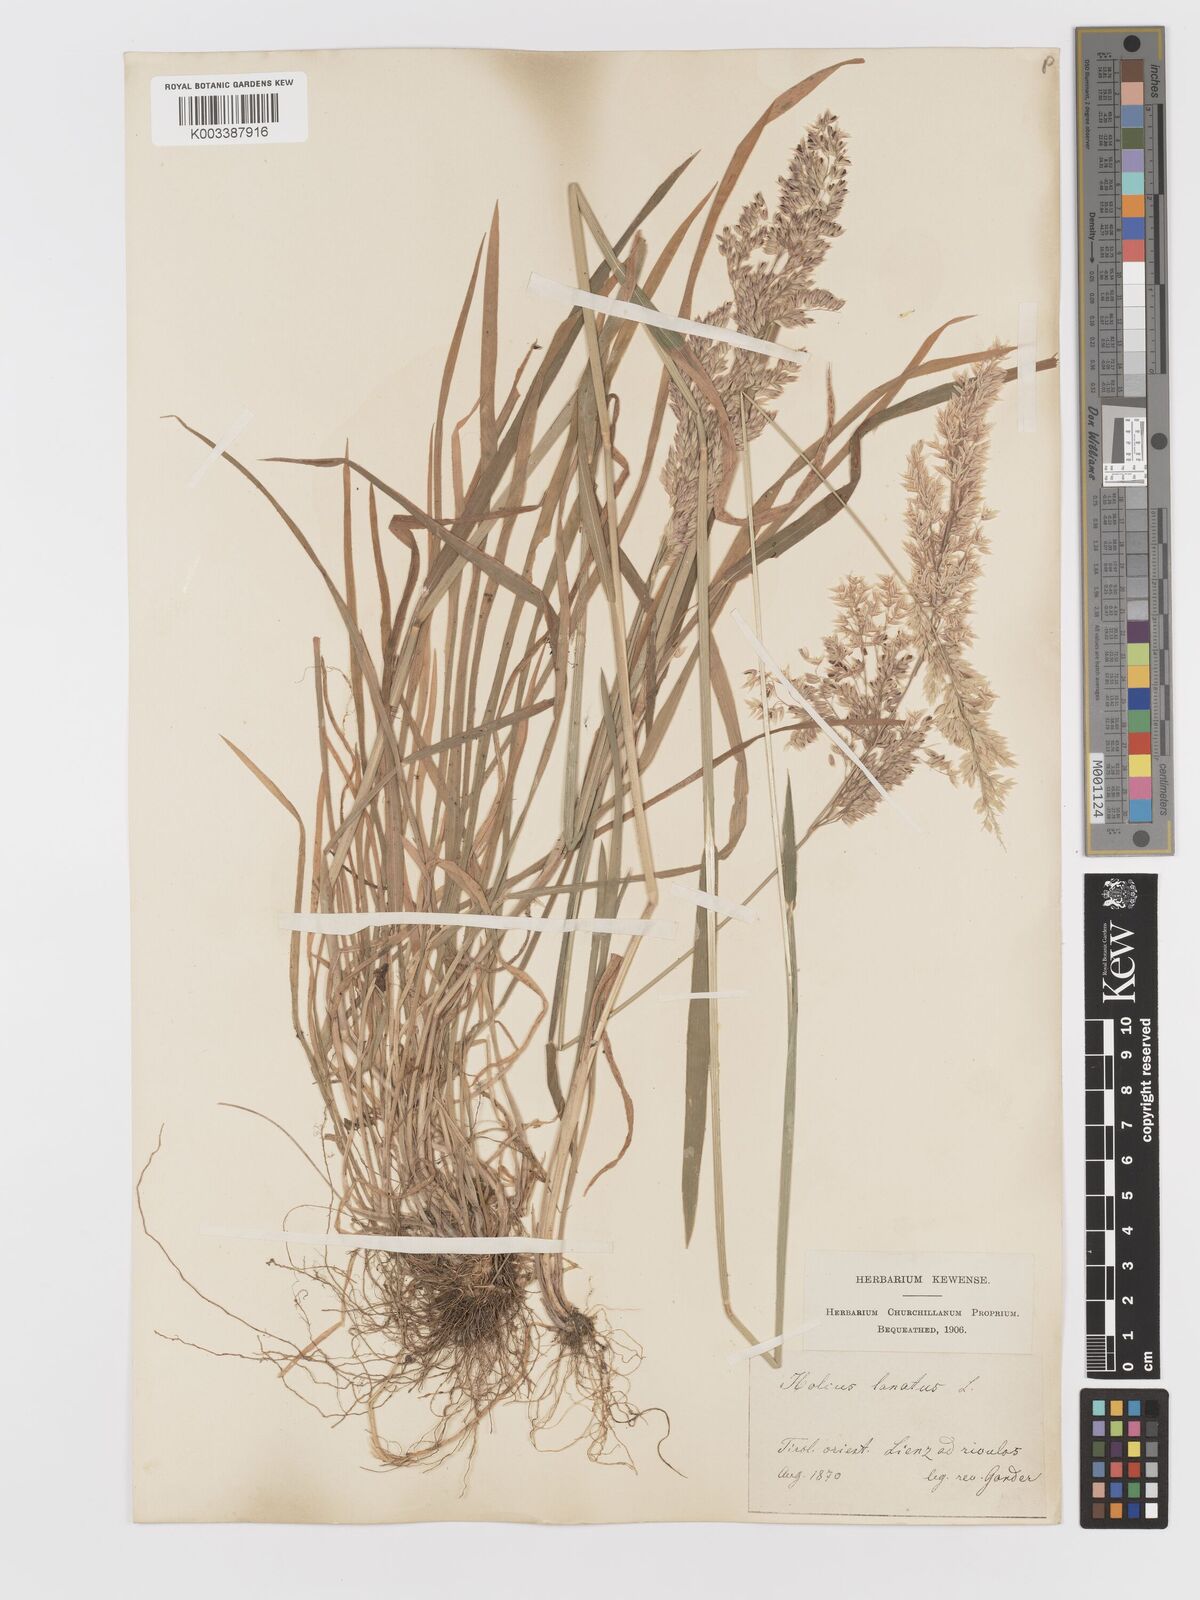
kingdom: Plantae
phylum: Tracheophyta
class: Liliopsida
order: Poales
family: Poaceae
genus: Holcus
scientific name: Holcus lanatus
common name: Yorkshire-fog
